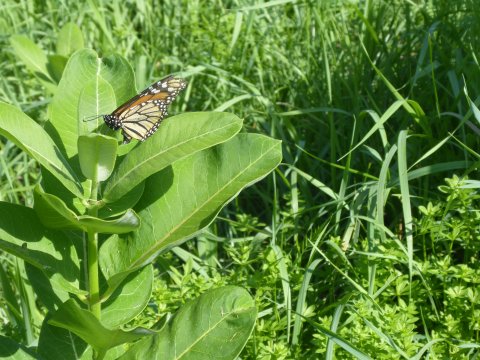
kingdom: Animalia
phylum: Arthropoda
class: Insecta
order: Lepidoptera
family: Nymphalidae
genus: Danaus
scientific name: Danaus plexippus
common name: Monarch
